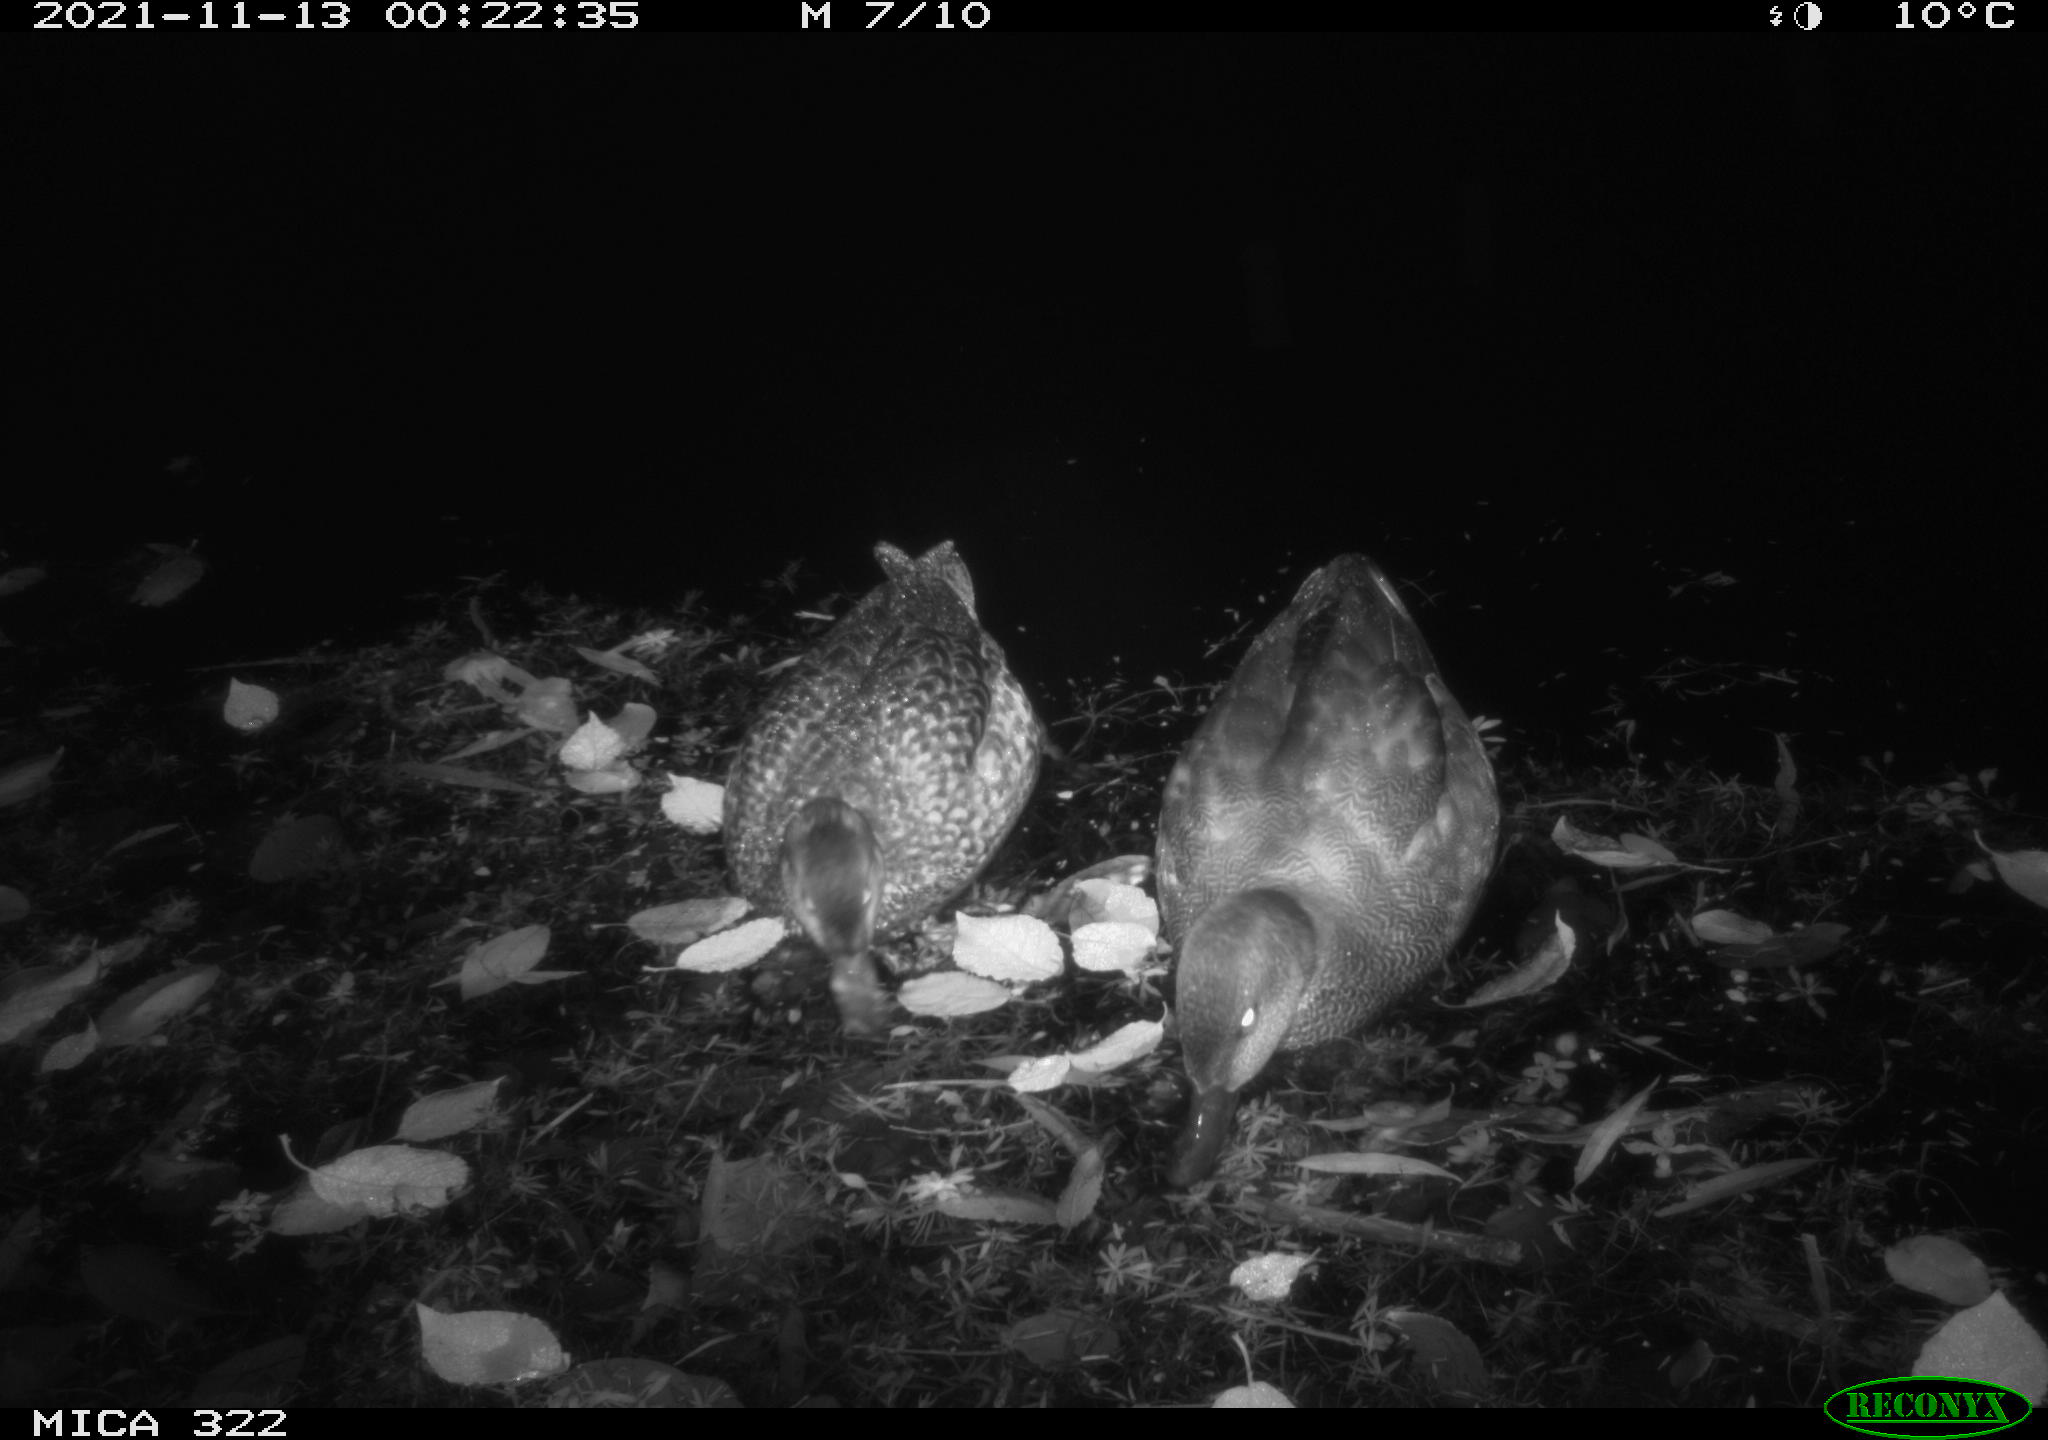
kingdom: Animalia
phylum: Chordata
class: Aves
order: Anseriformes
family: Anatidae
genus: Anas
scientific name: Anas platyrhynchos
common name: Mallard
